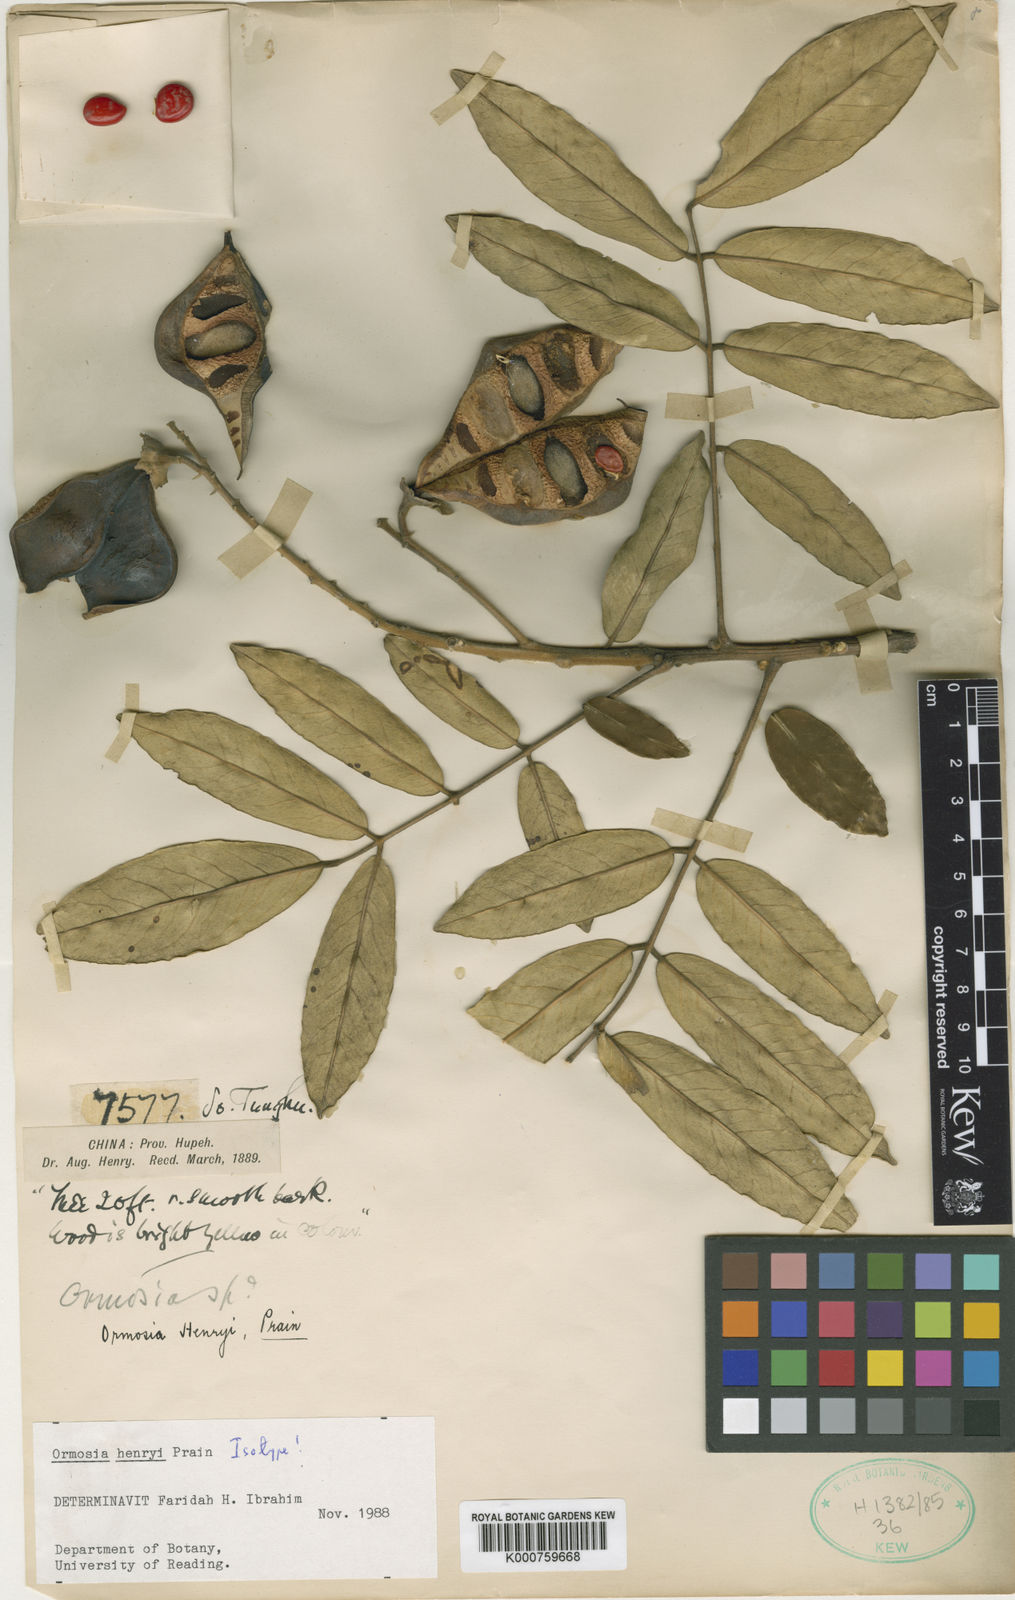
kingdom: Plantae
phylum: Tracheophyta
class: Magnoliopsida
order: Fabales
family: Fabaceae
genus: Ormosia
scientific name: Ormosia henryi
